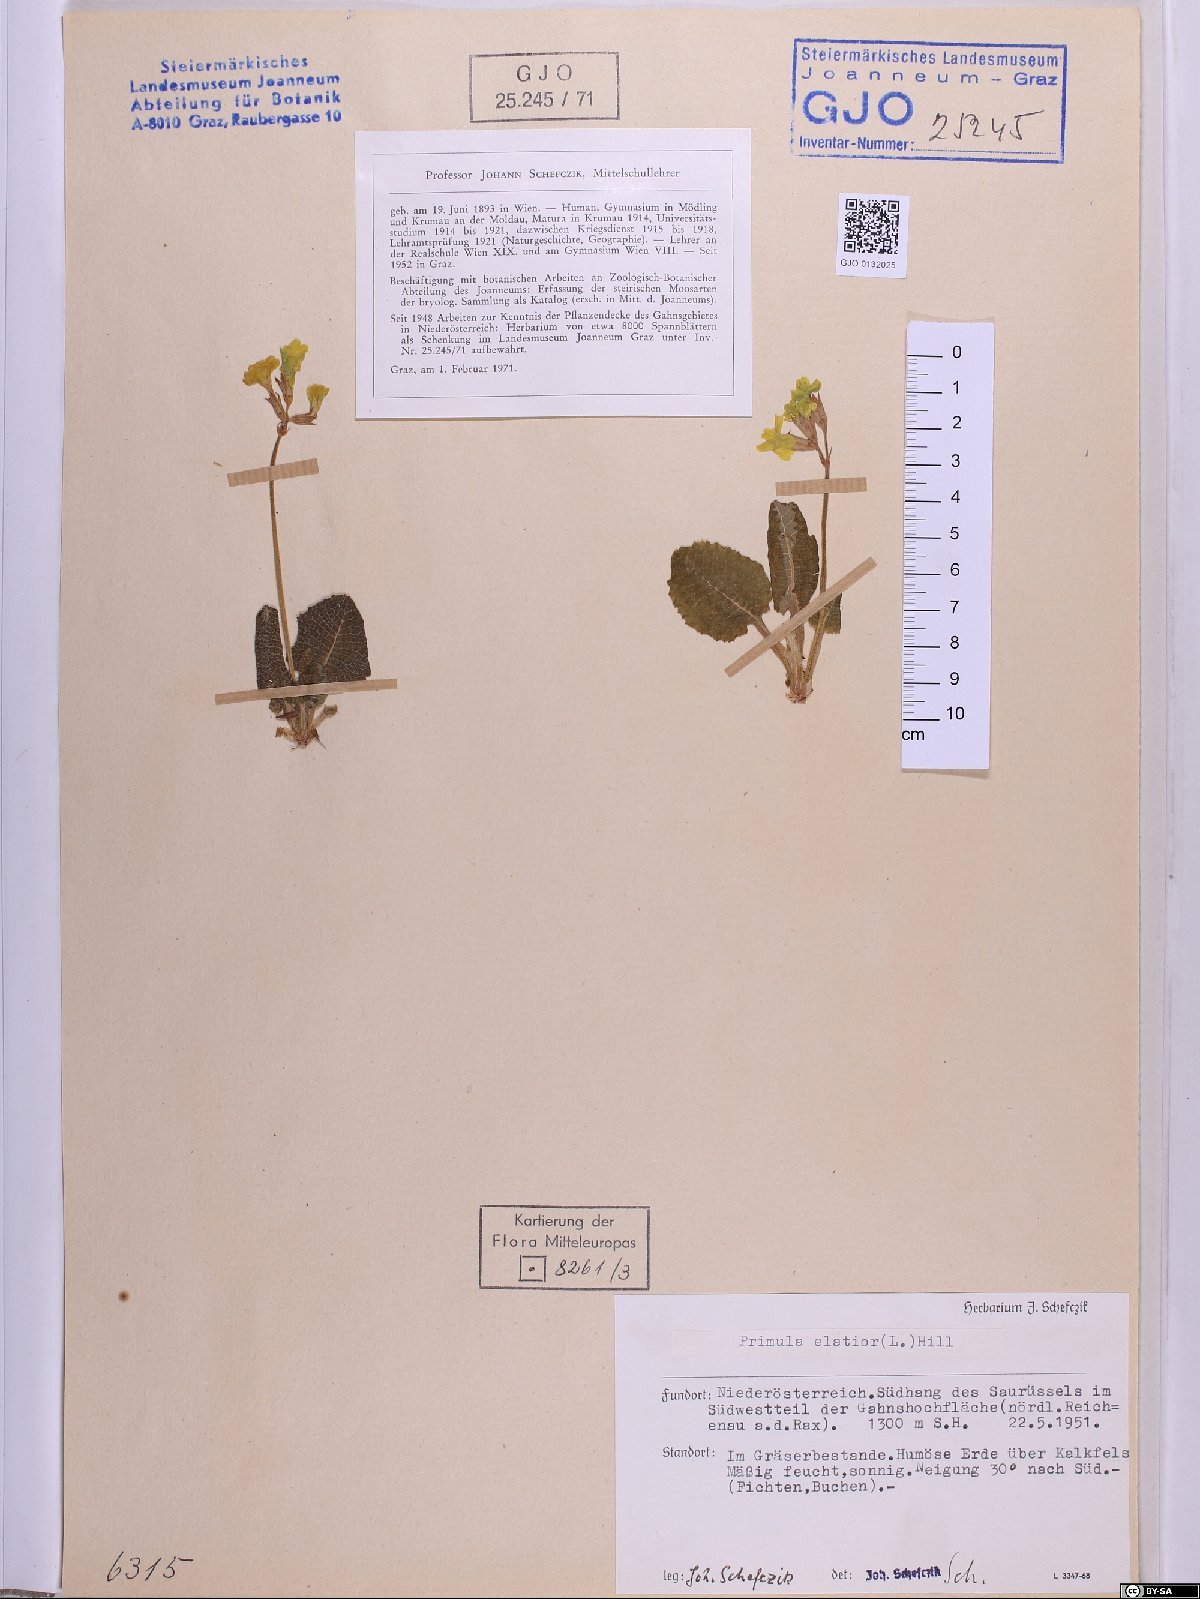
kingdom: Plantae
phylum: Tracheophyta
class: Magnoliopsida
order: Ericales
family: Primulaceae
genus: Primula
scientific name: Primula elatior
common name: Oxlip
